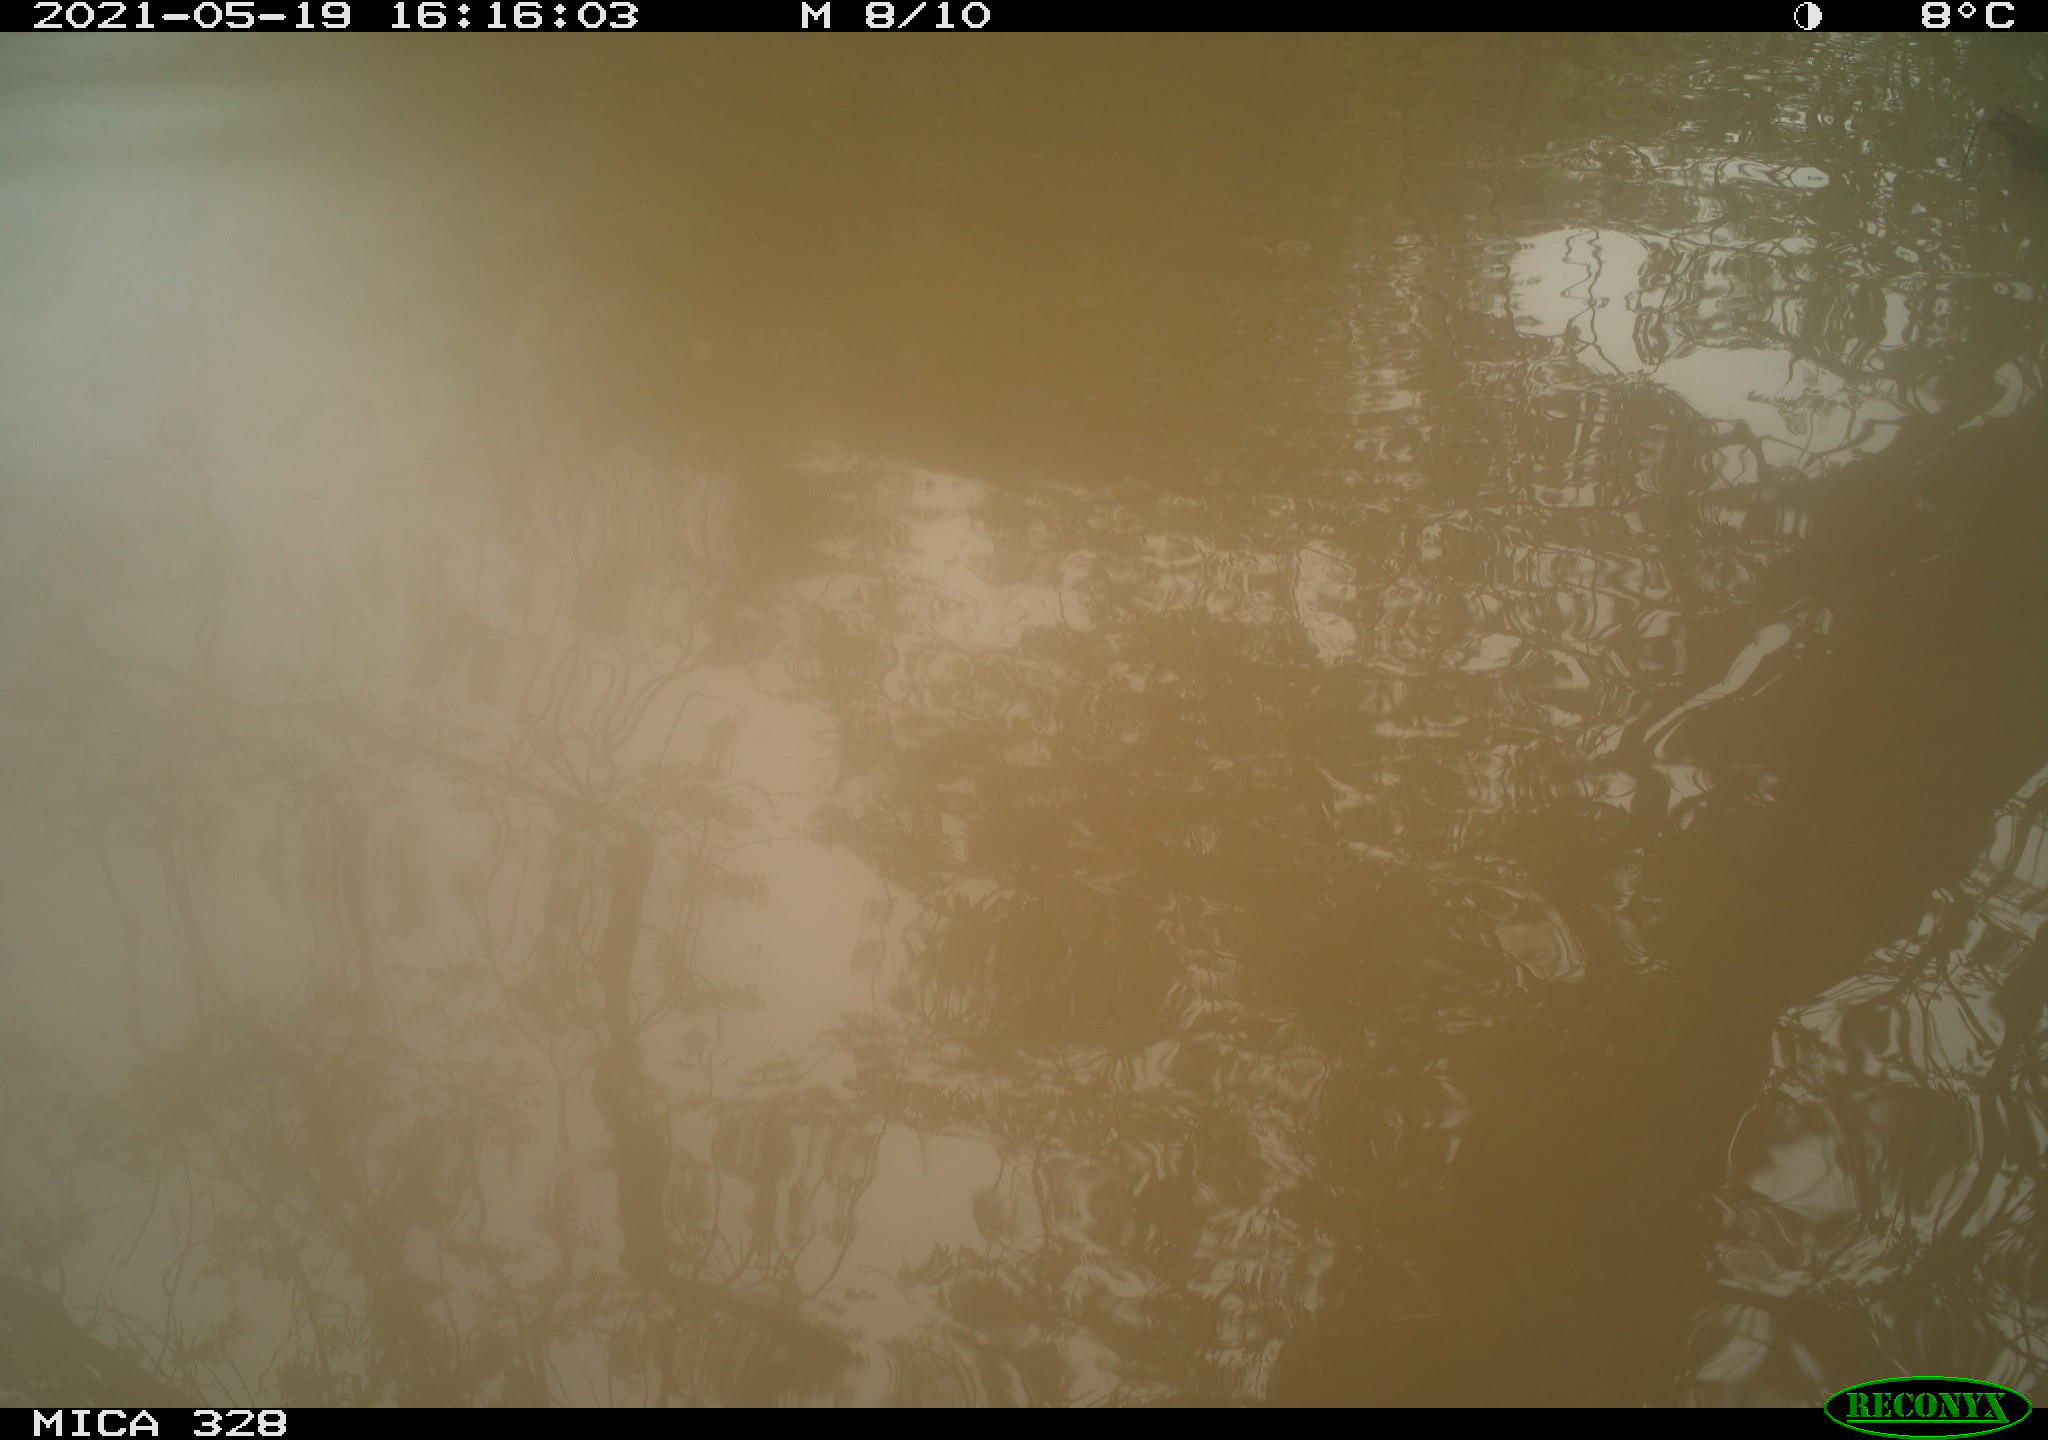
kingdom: Animalia
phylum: Chordata
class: Mammalia
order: Rodentia
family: Cricetidae
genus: Ondatra
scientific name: Ondatra zibethicus
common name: Muskrat
